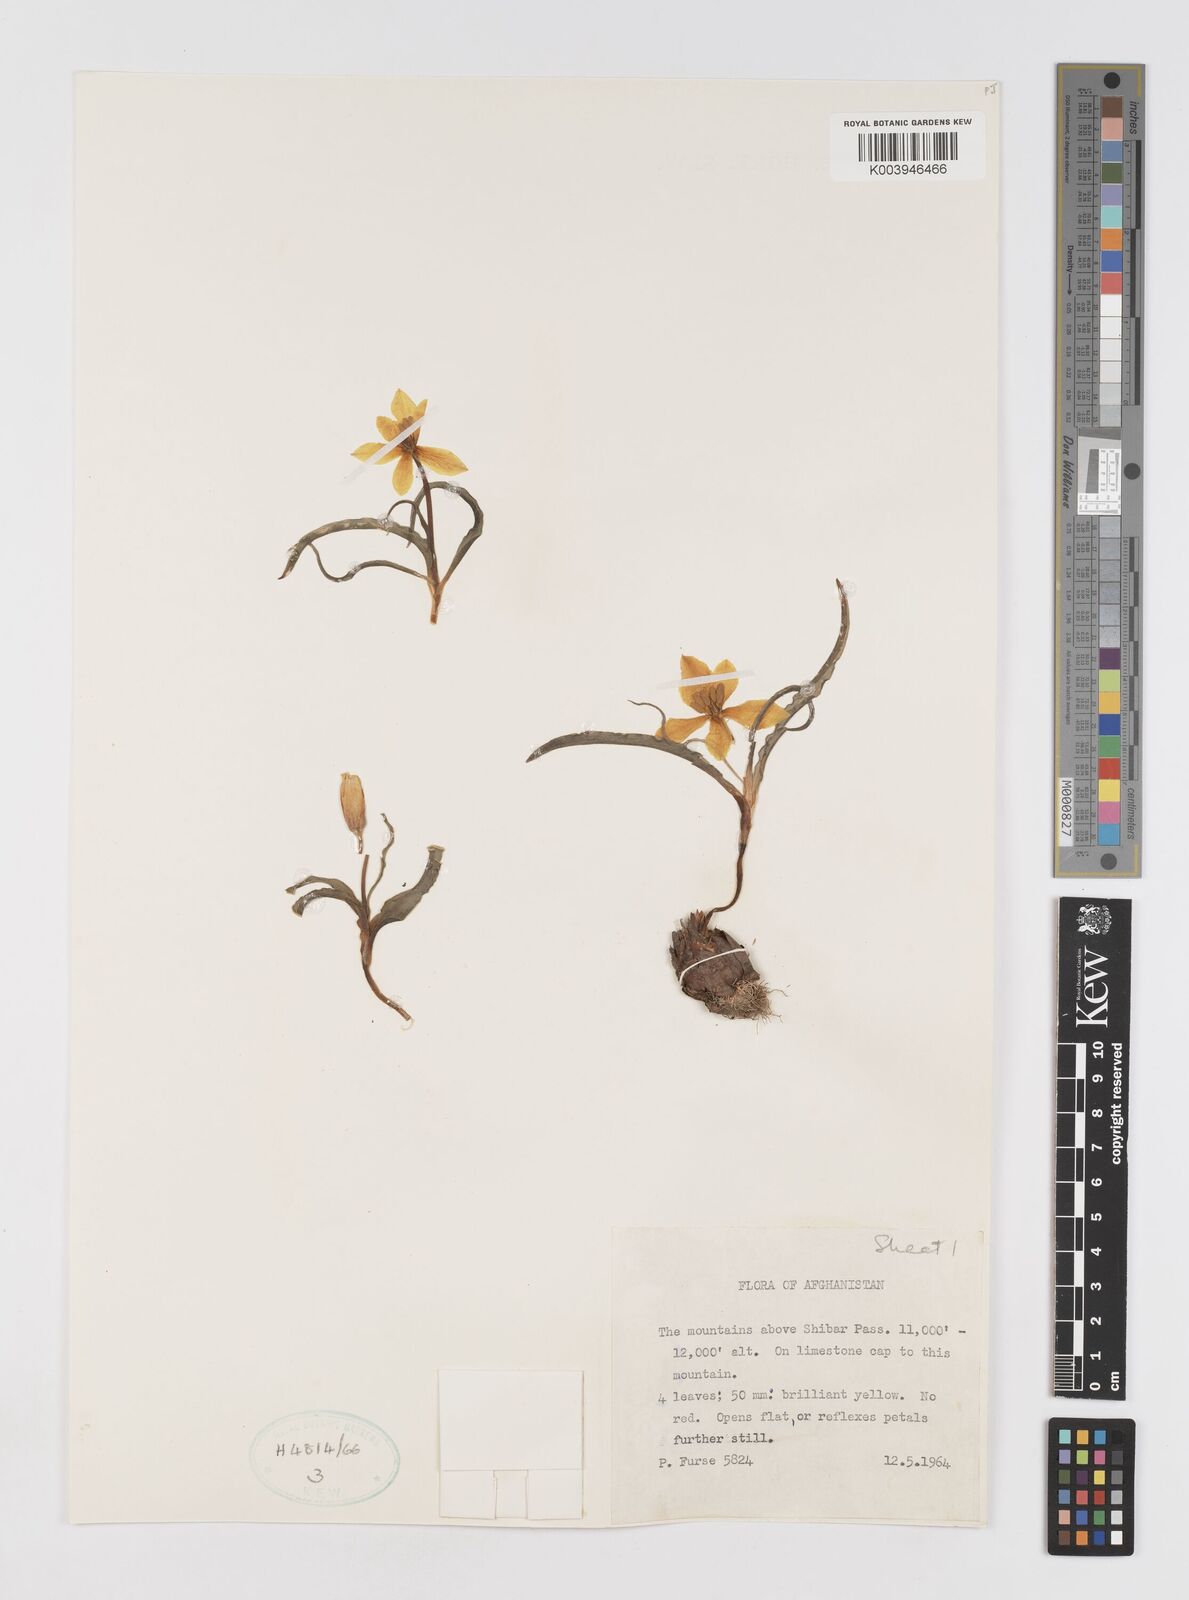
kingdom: Plantae
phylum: Tracheophyta
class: Liliopsida
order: Liliales
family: Liliaceae
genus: Tulipa
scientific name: Tulipa
